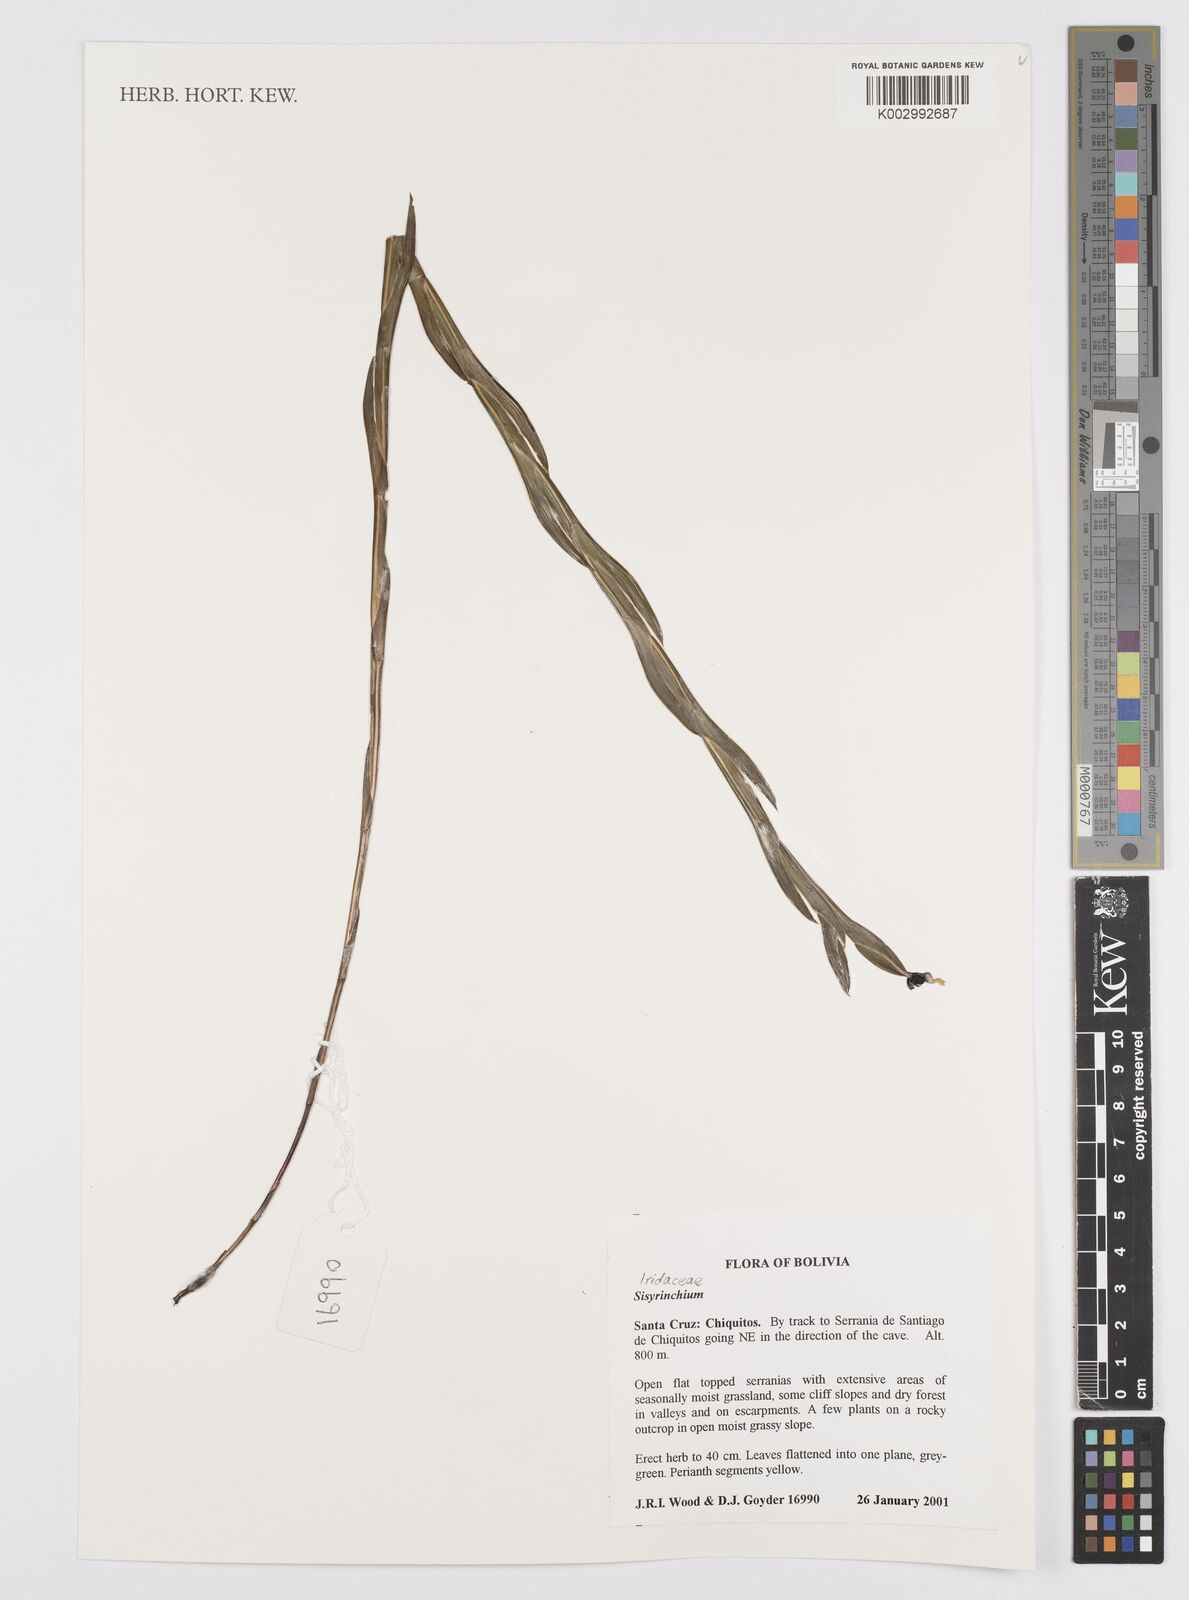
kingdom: Plantae
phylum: Tracheophyta
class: Liliopsida
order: Asparagales
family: Iridaceae
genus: Sisyrinchium
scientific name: Sisyrinchium
